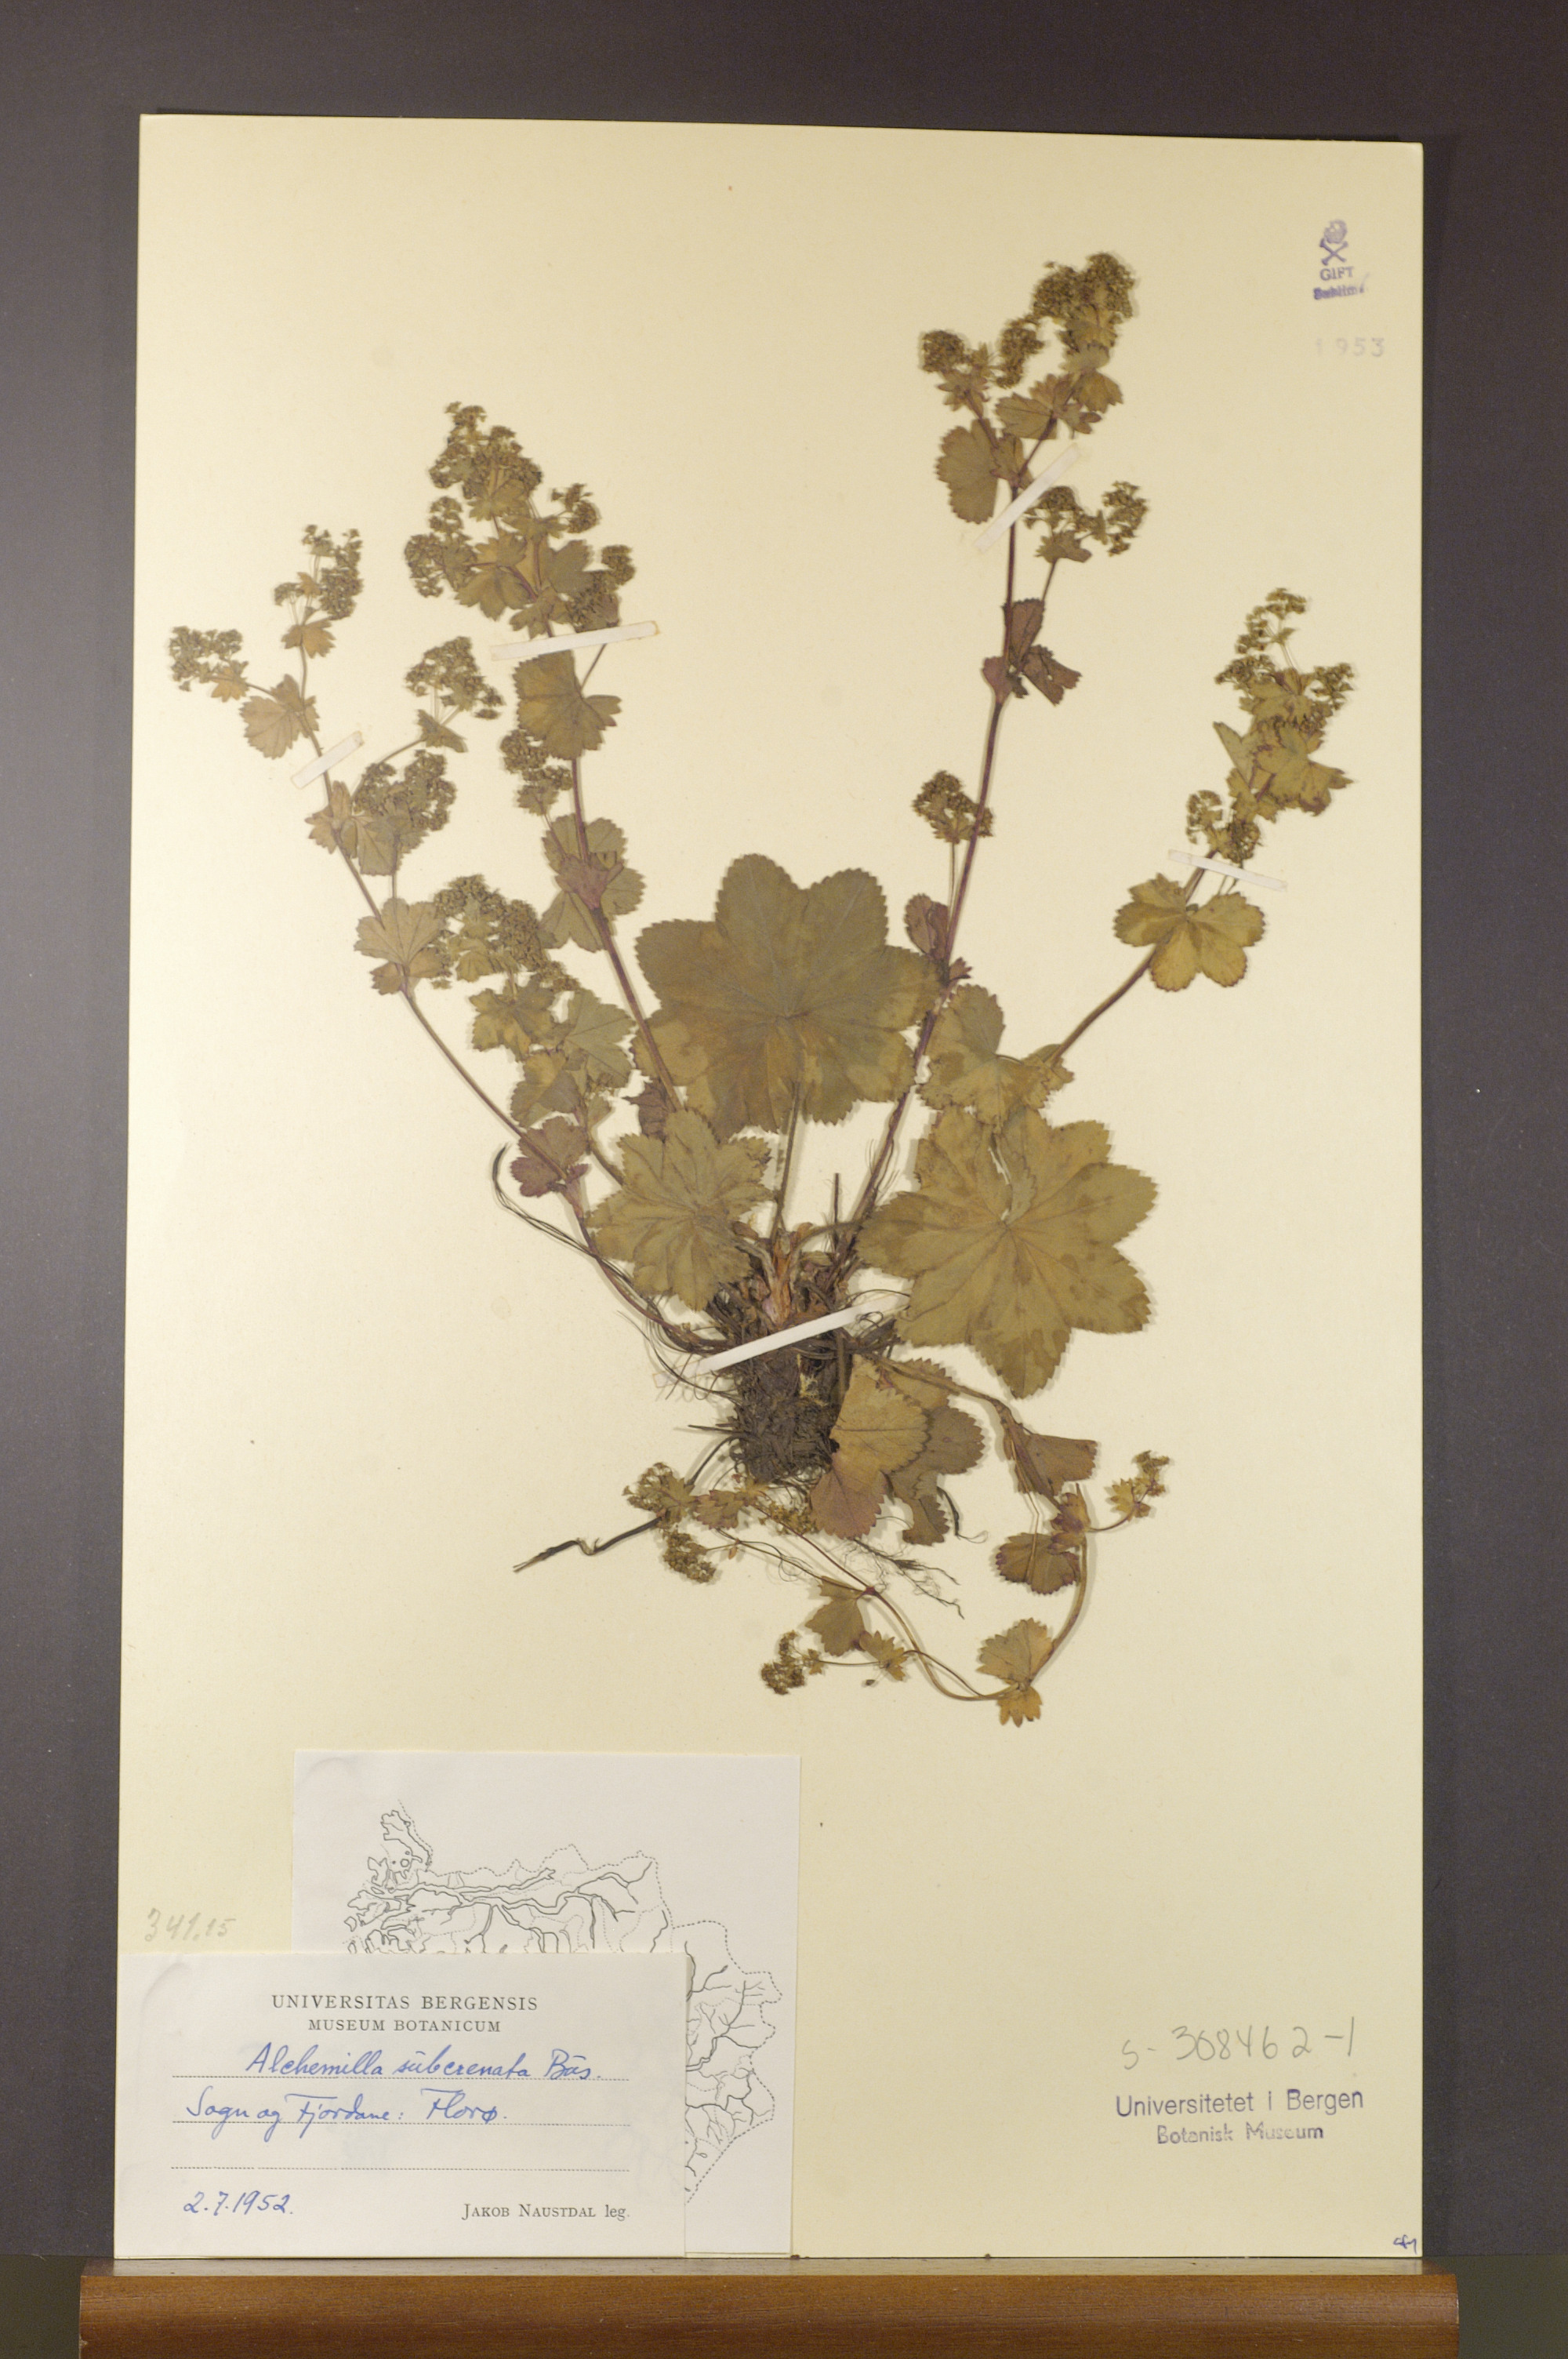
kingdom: Plantae
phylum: Tracheophyta
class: Magnoliopsida
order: Rosales
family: Rosaceae
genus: Alchemilla
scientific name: Alchemilla subcrenata
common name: Broadtooth lady's mantle
